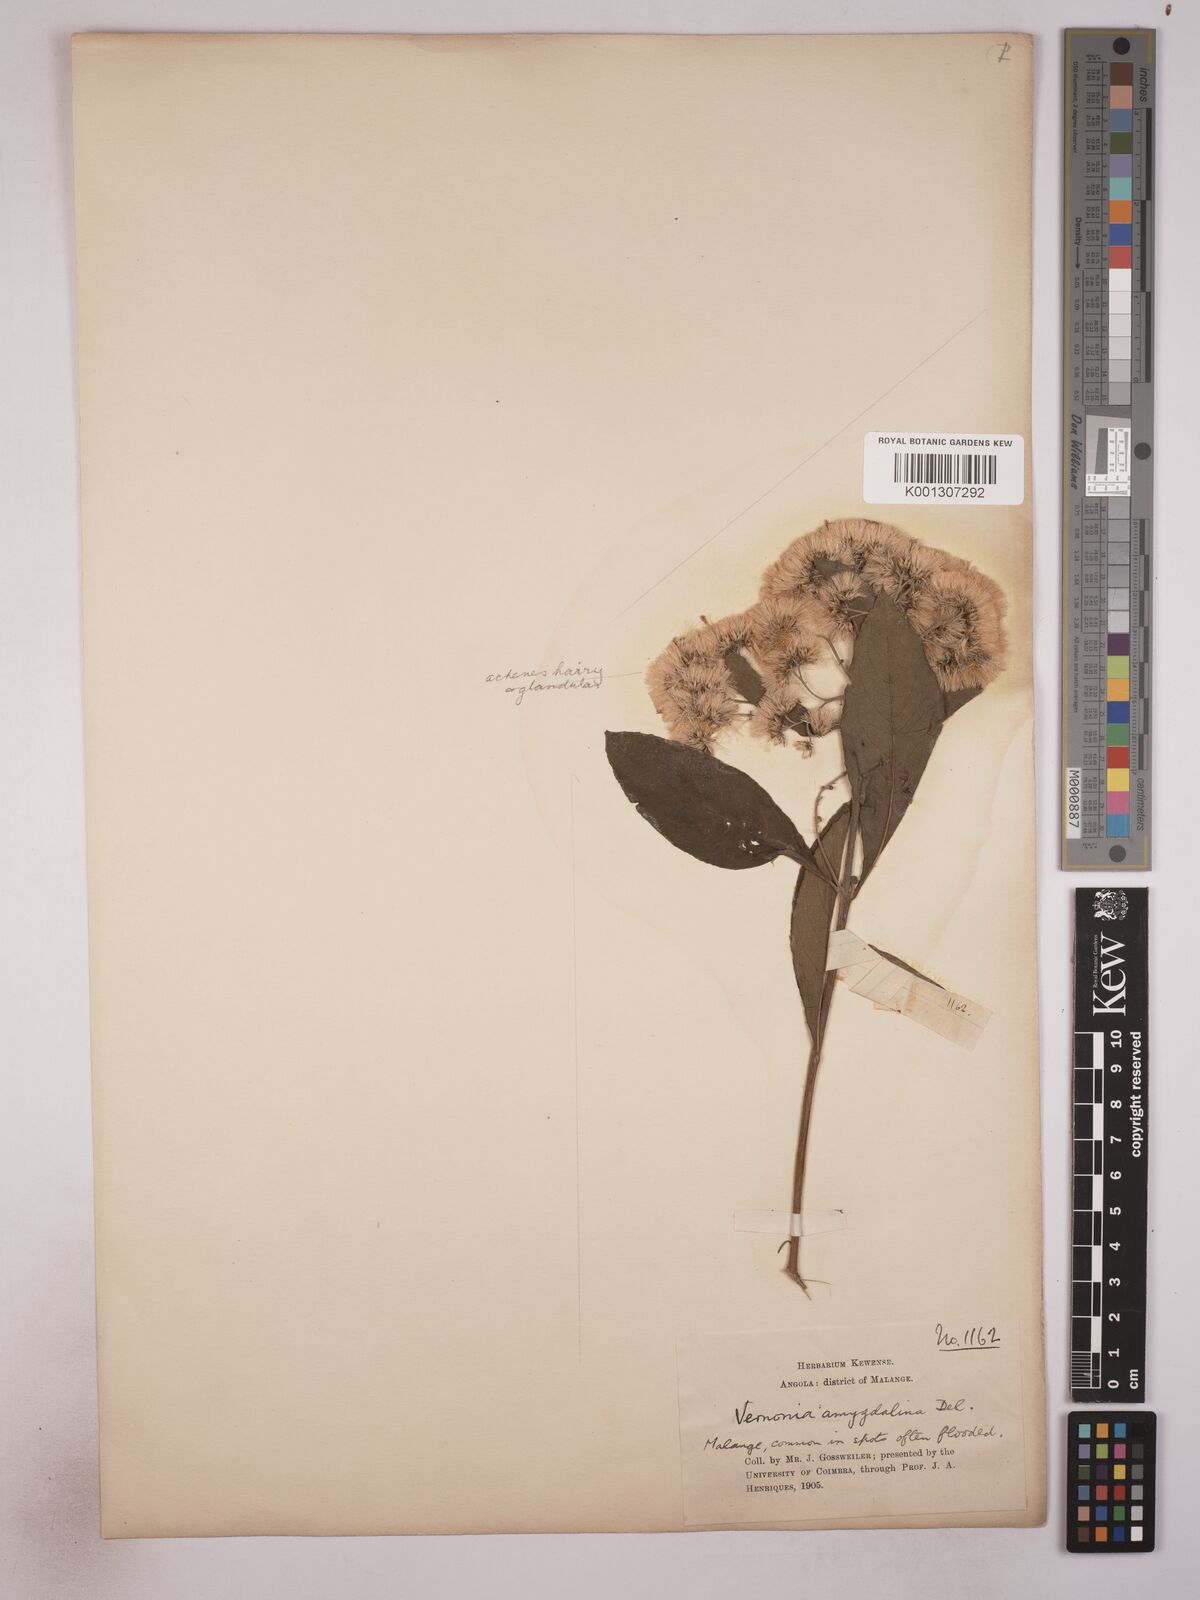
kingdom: Plantae
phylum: Tracheophyta
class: Magnoliopsida
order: Asterales
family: Asteraceae
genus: Gymnanthemum
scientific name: Gymnanthemum amygdalinum
